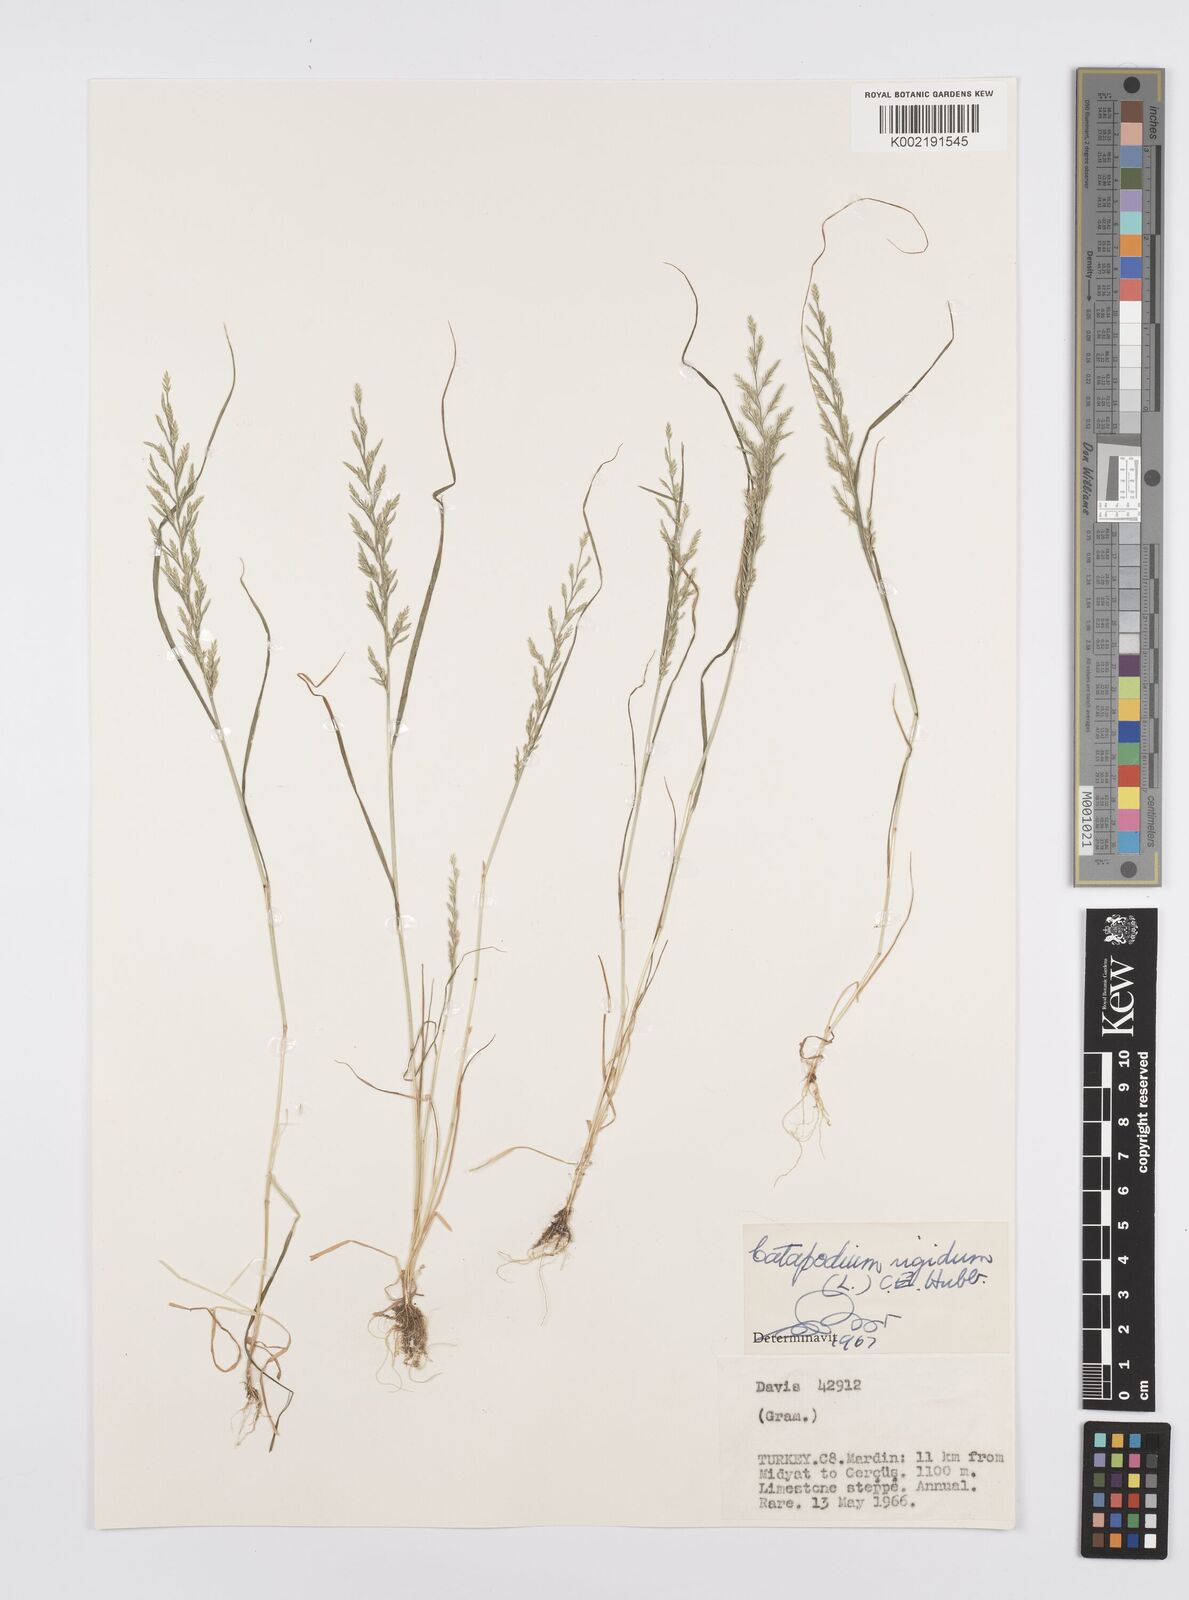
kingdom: Plantae
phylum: Tracheophyta
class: Liliopsida
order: Poales
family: Poaceae
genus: Catapodium
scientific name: Catapodium rigidum
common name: Fern-grass
